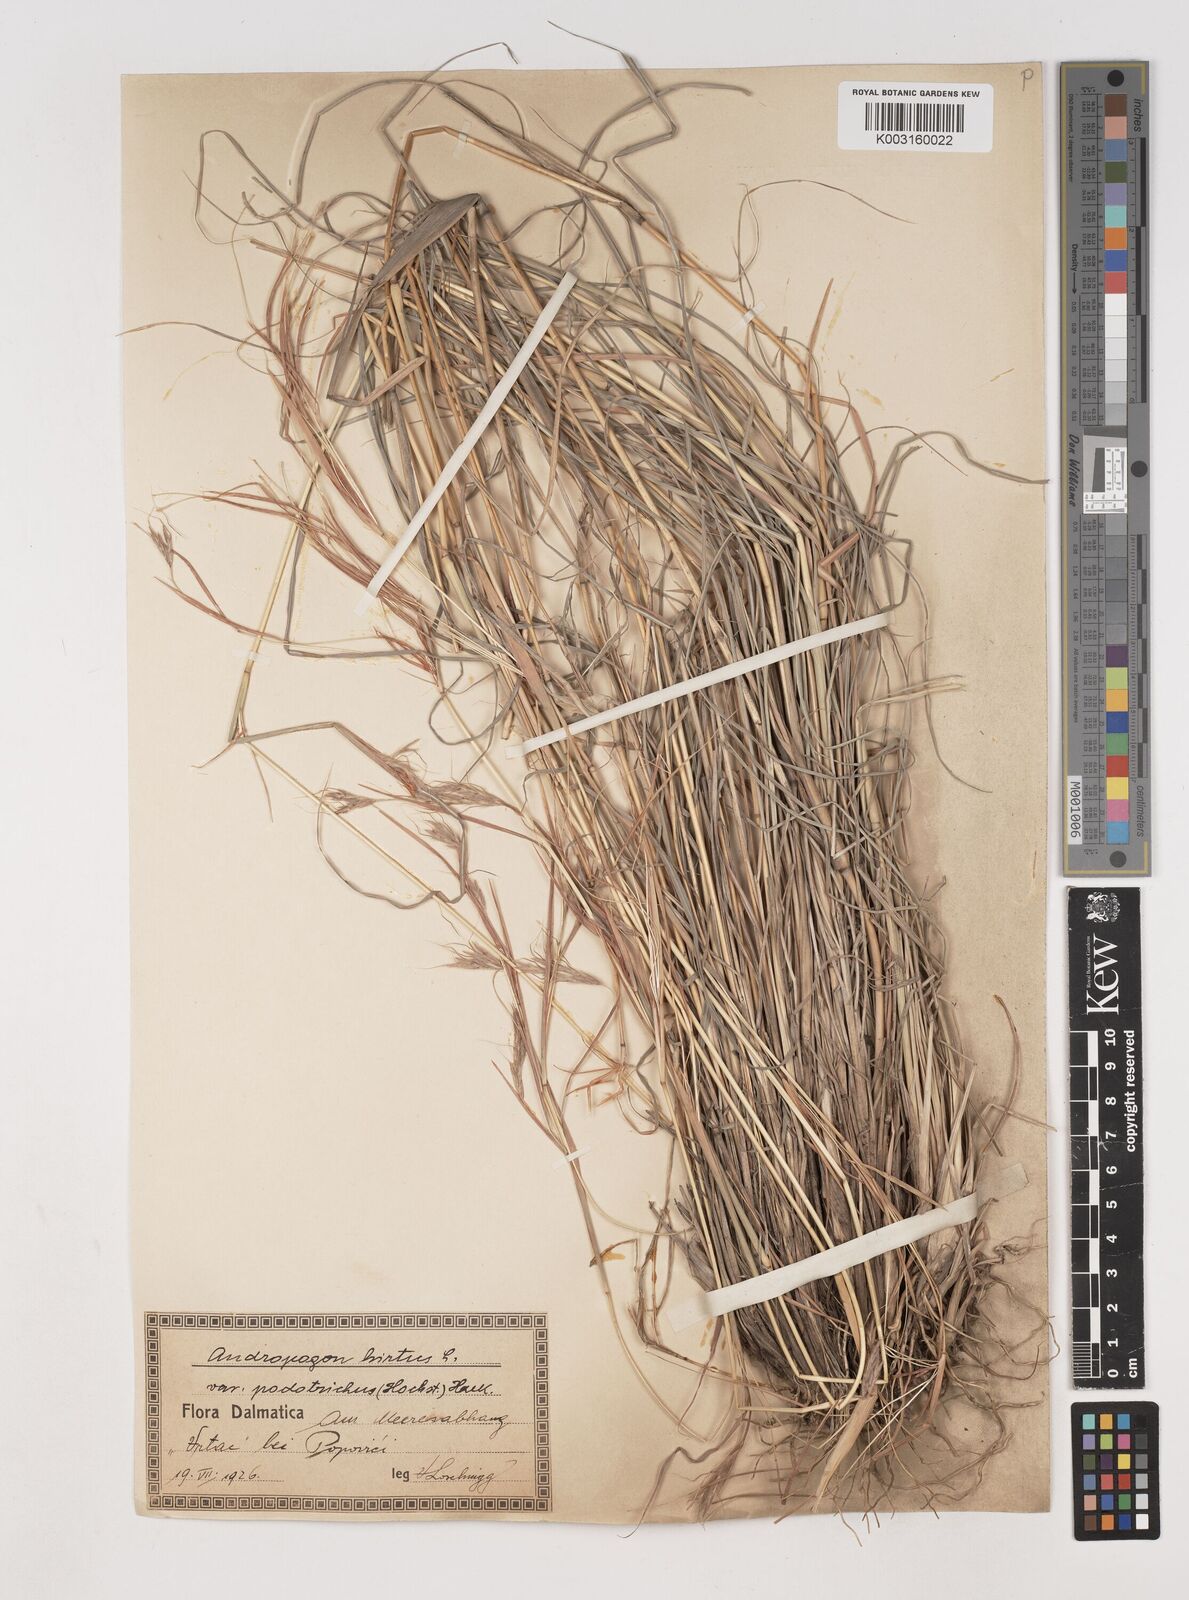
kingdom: Plantae
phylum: Tracheophyta
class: Liliopsida
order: Poales
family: Poaceae
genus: Hyparrhenia
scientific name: Hyparrhenia hirta
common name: Thatching grass
